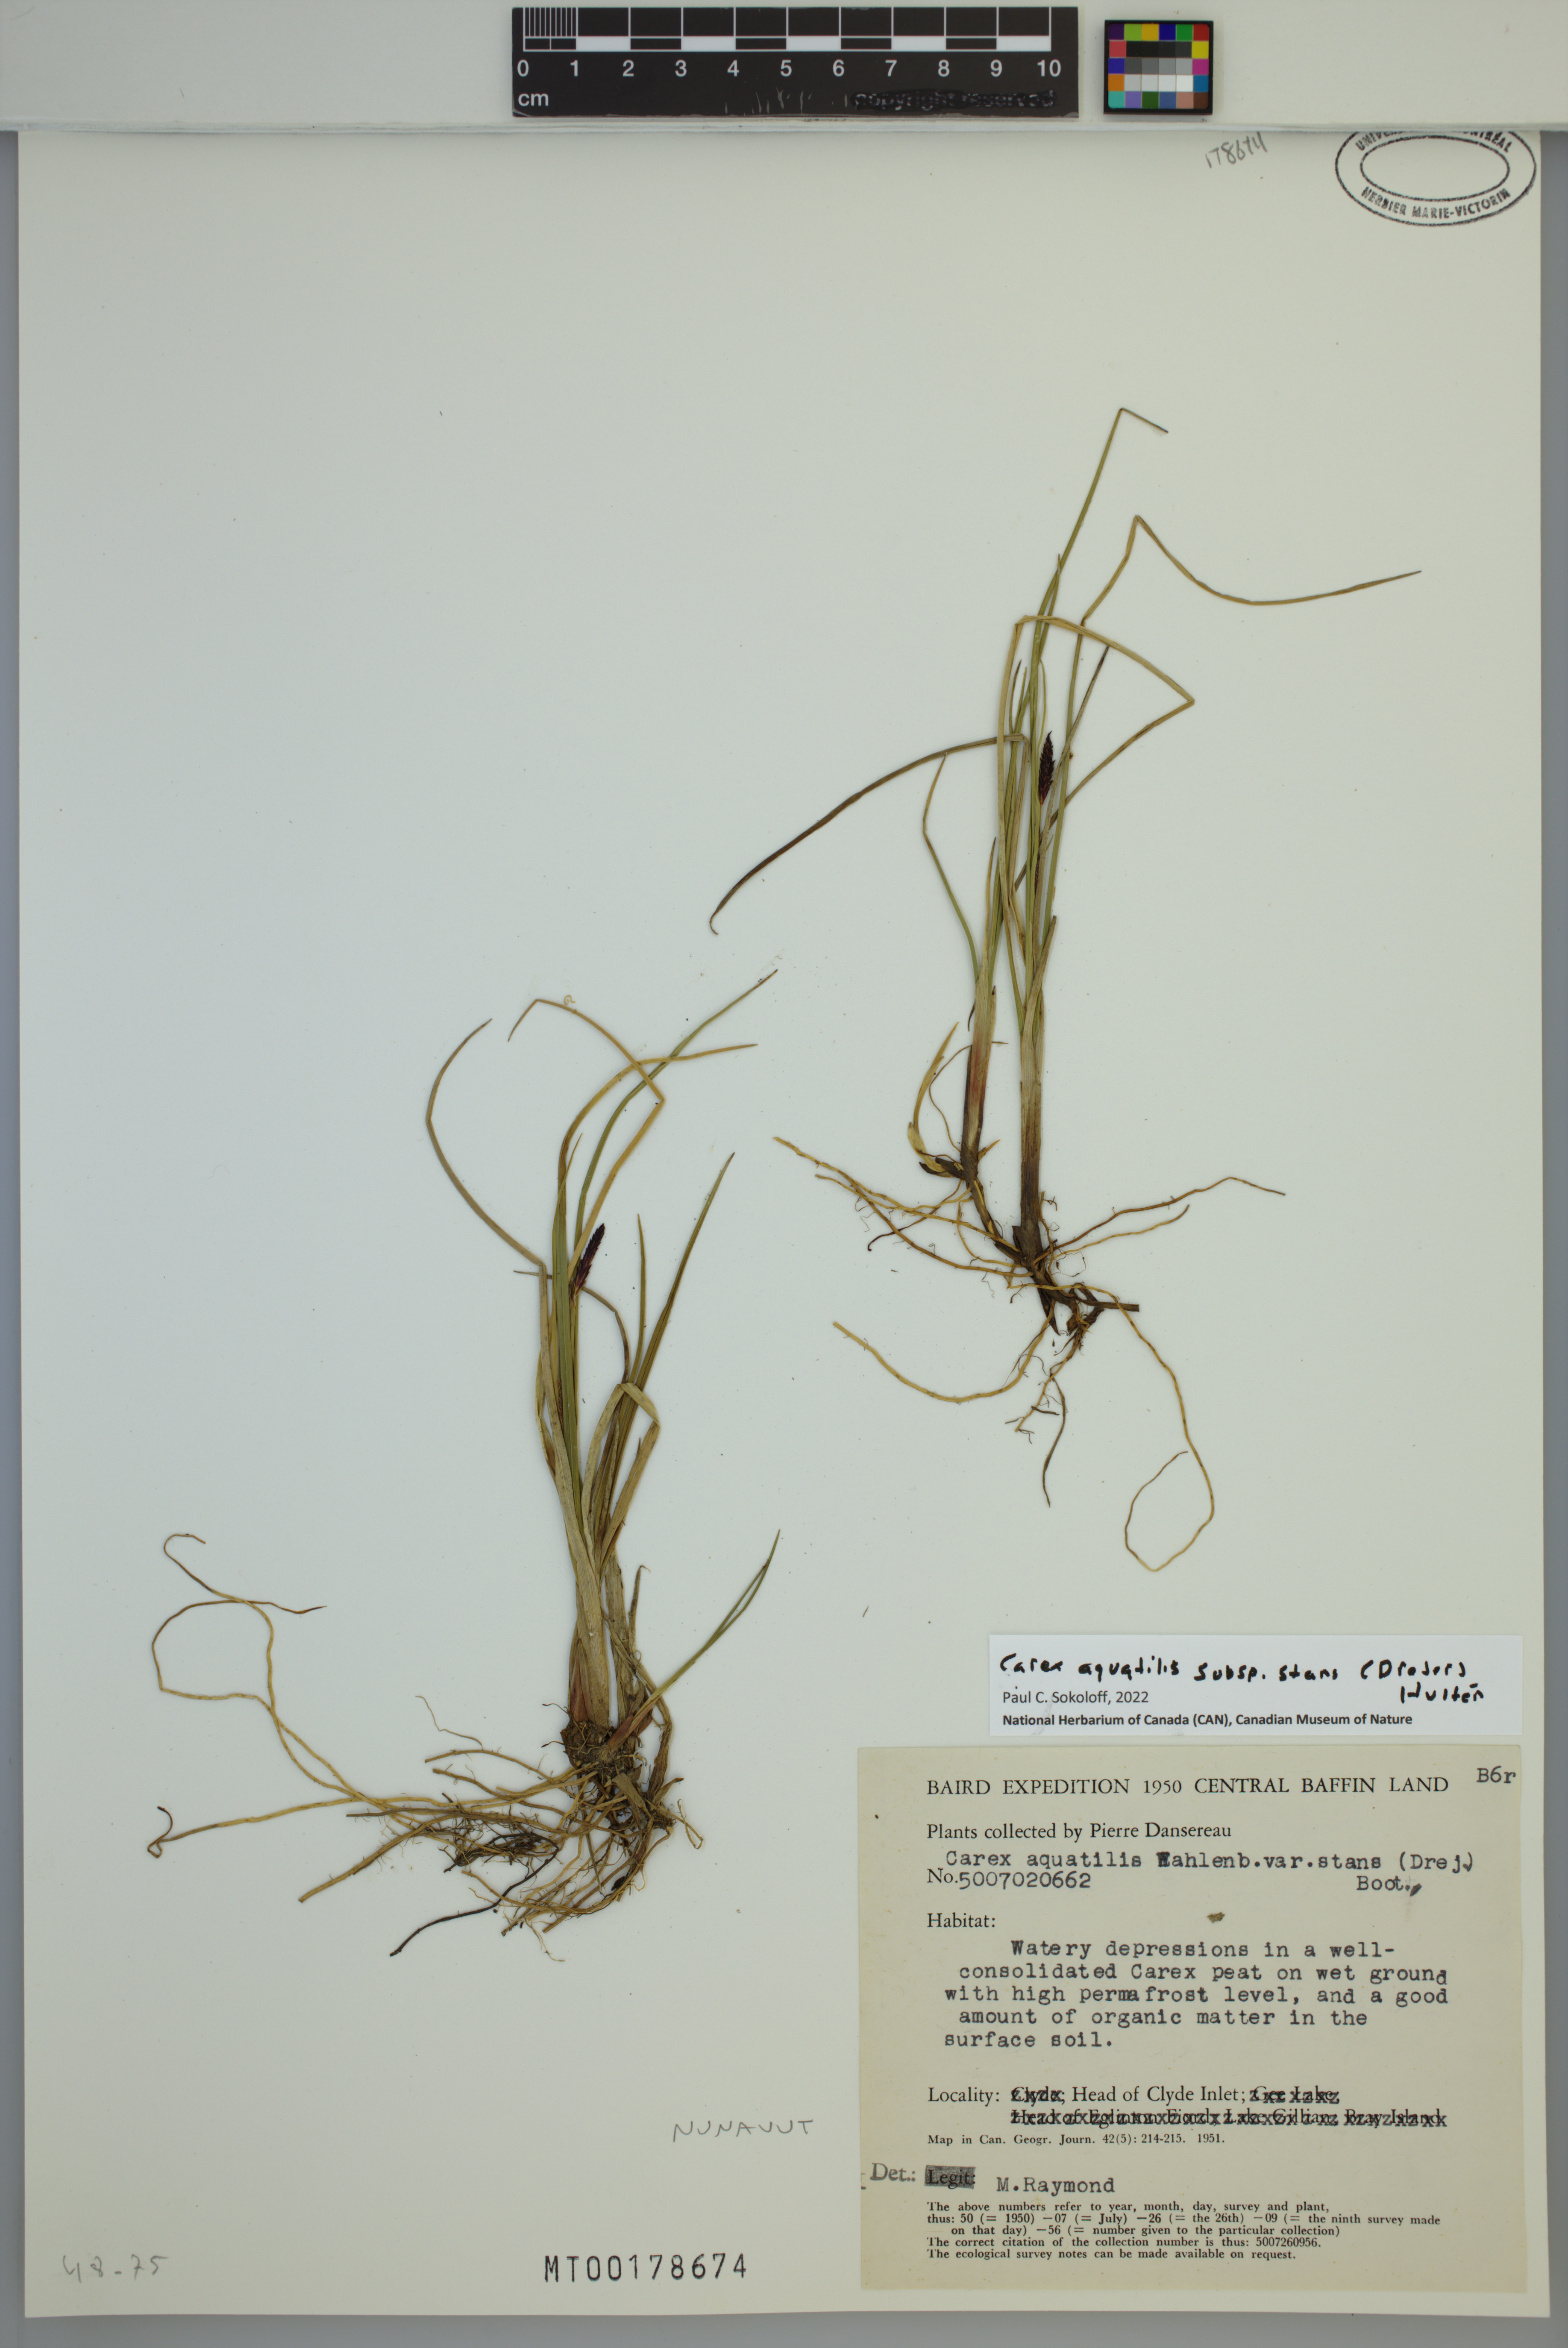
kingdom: Plantae
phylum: Tracheophyta
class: Liliopsida
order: Poales
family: Cyperaceae
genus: Carex
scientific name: Carex aquatilis
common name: Water sedge
